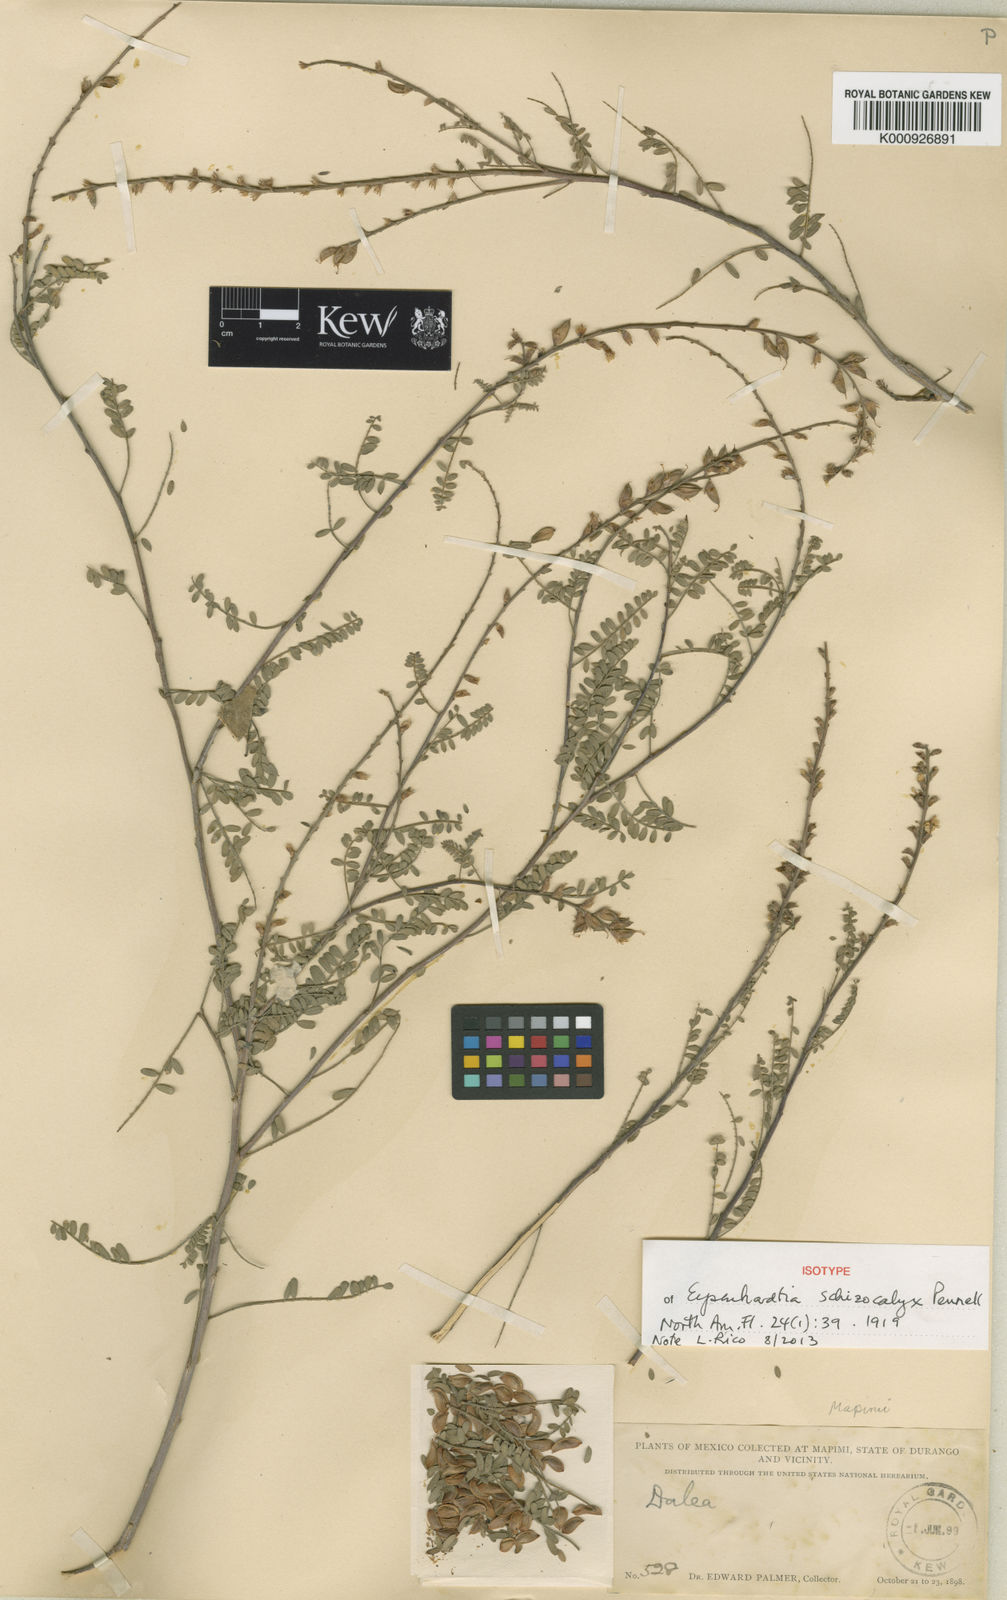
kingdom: Plantae
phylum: Tracheophyta
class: Magnoliopsida
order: Fabales
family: Fabaceae
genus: Eysenhardtia
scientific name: Eysenhardtia schizocalyx
